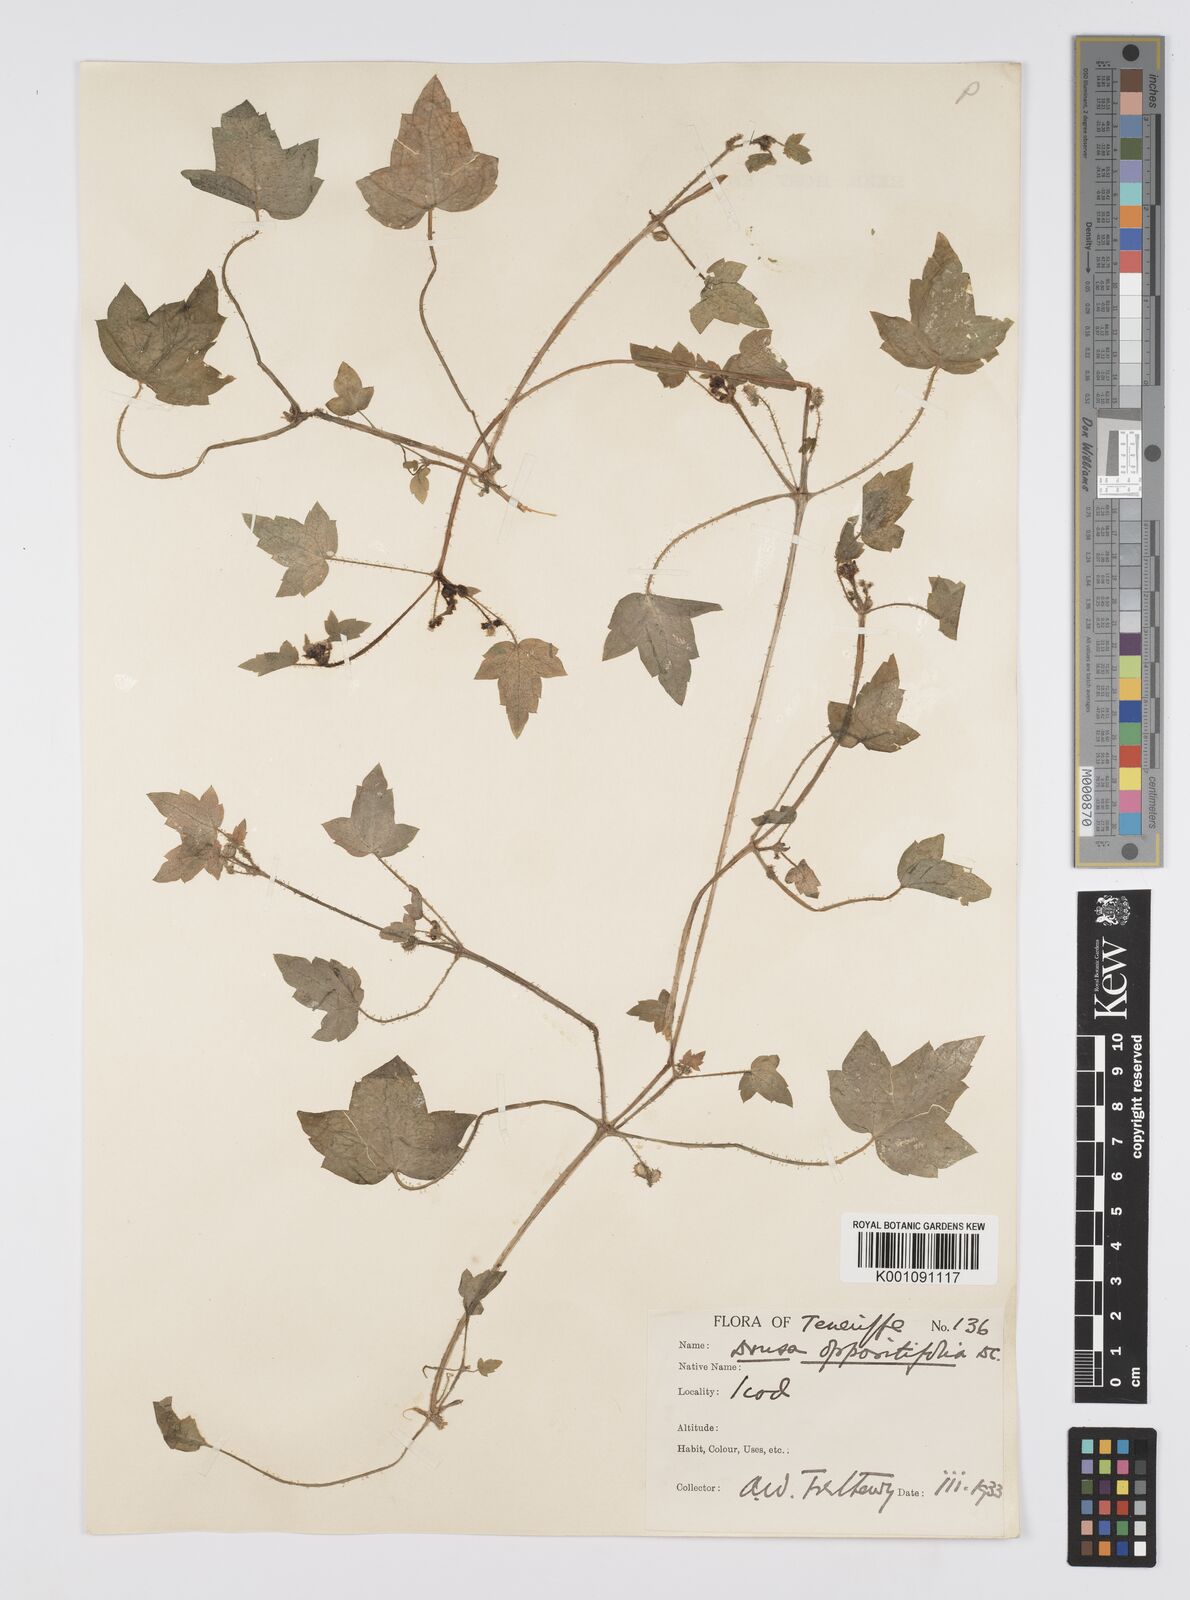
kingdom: Plantae
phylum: Tracheophyta
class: Magnoliopsida
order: Apiales
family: Apiaceae
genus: Drusa
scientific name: Drusa glandulosa
